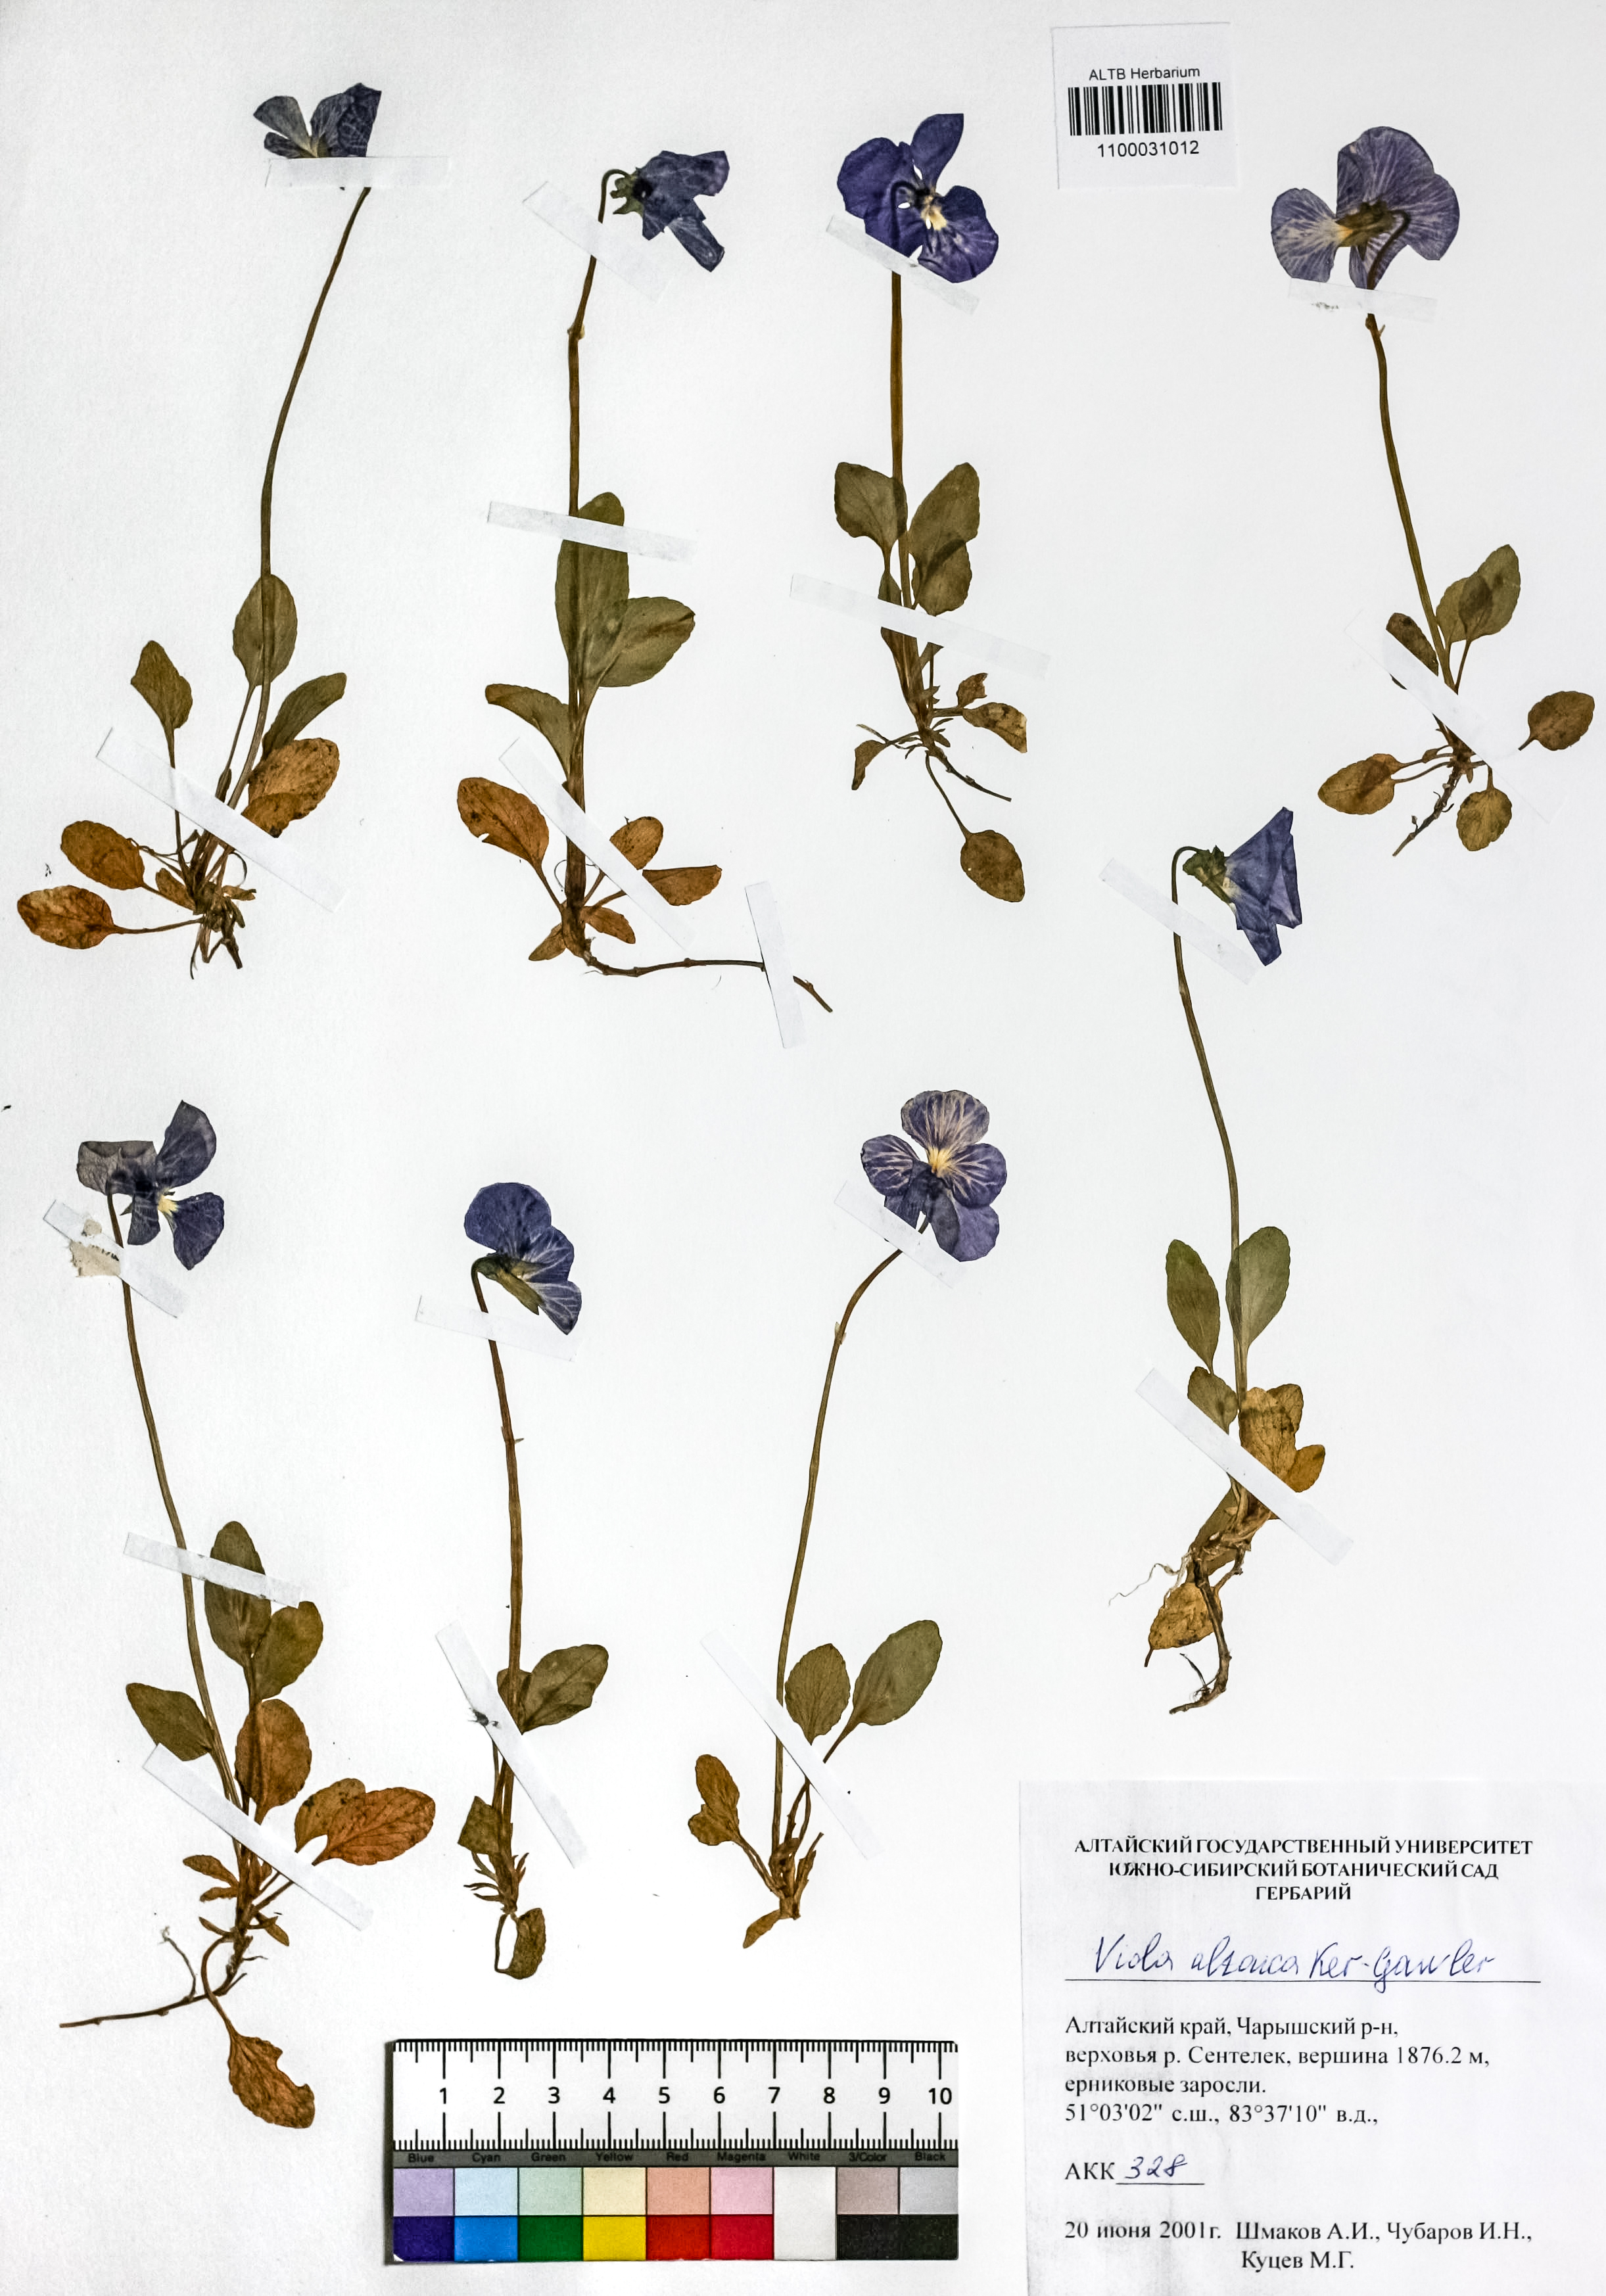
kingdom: Plantae
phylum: Tracheophyta
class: Magnoliopsida
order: Malpighiales
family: Violaceae
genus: Viola
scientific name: Viola altaica
